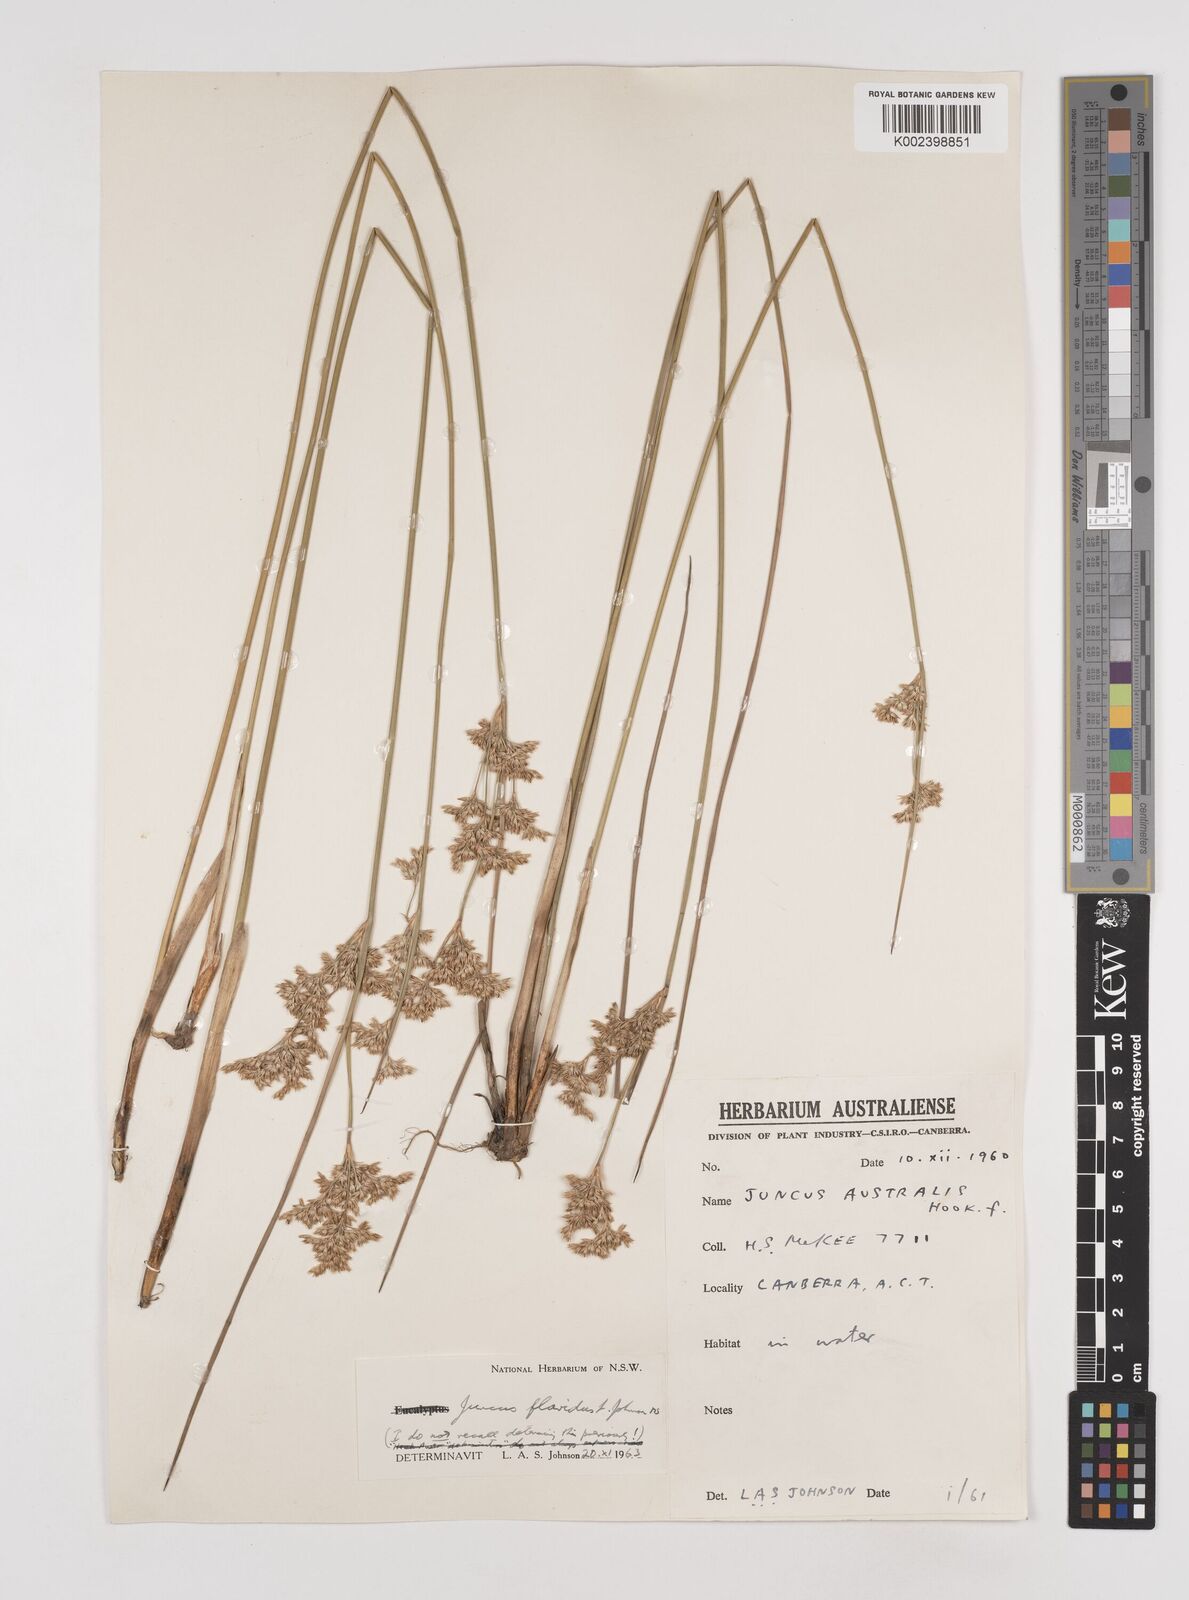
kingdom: Plantae
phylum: Tracheophyta
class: Liliopsida
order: Poales
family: Juncaceae
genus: Juncus
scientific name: Juncus flavidus
